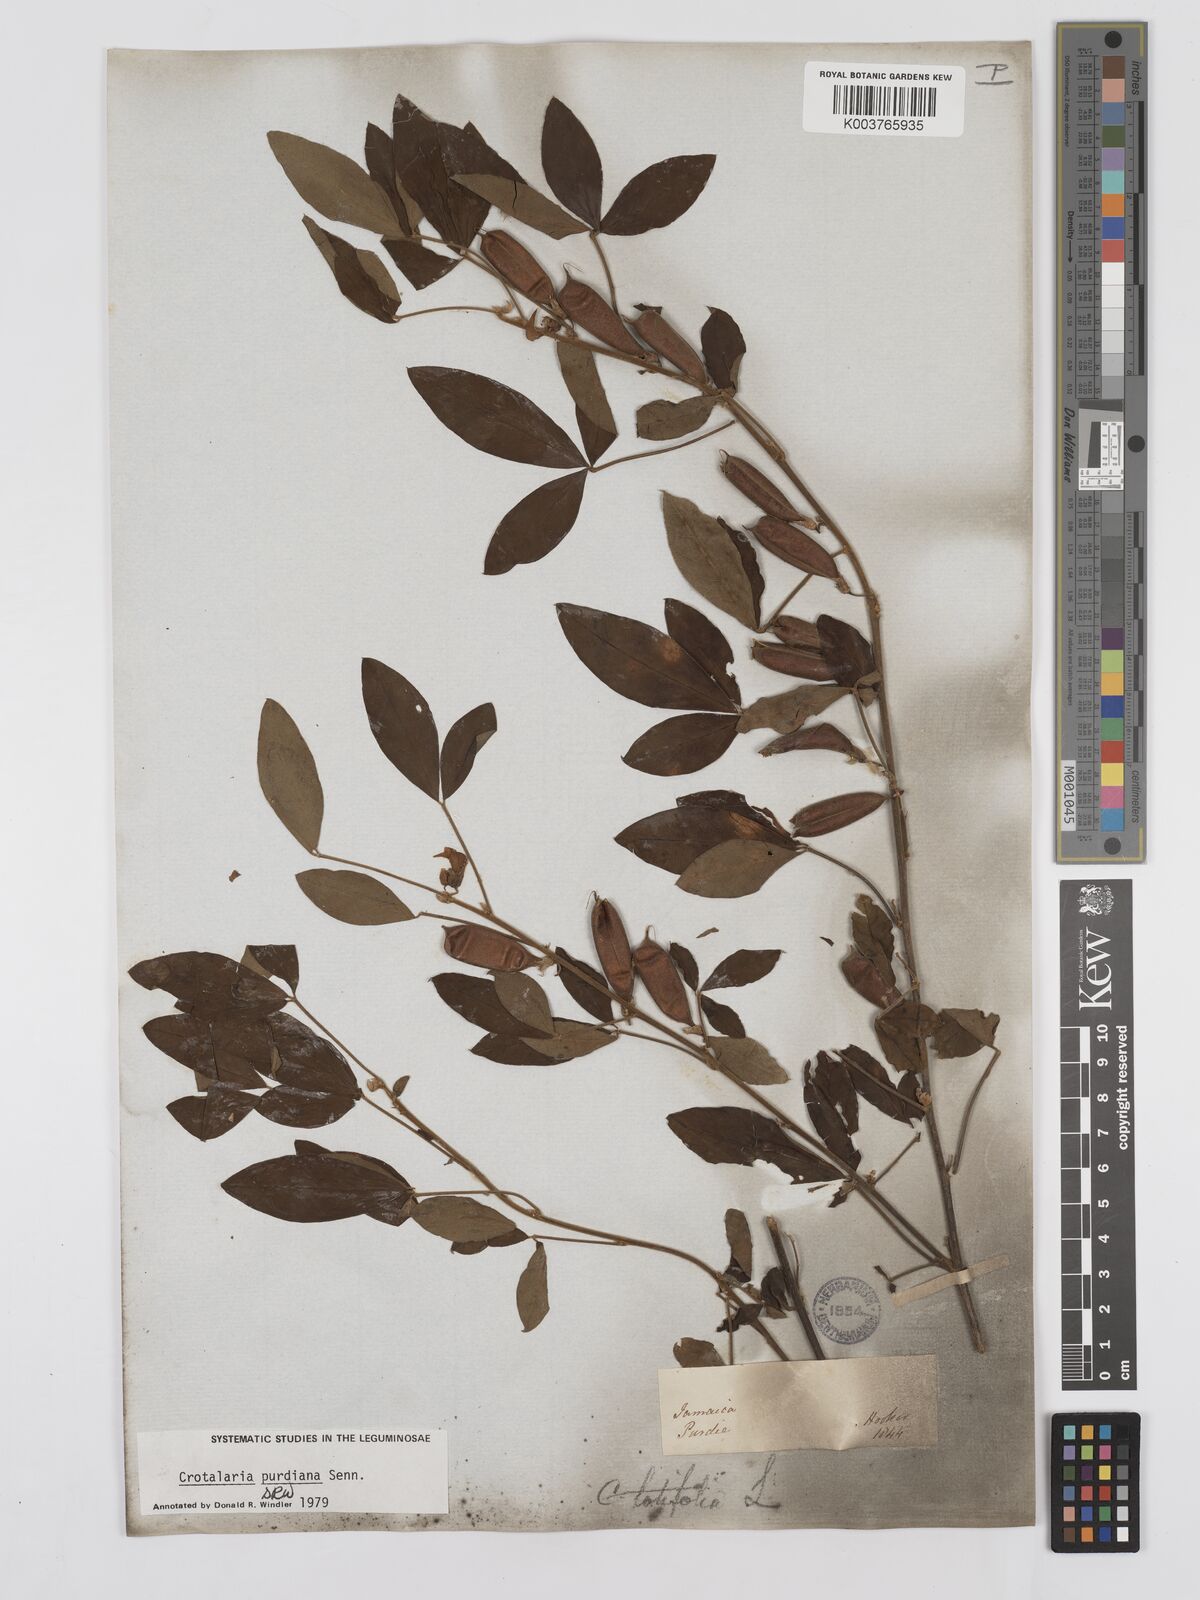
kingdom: Plantae
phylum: Tracheophyta
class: Magnoliopsida
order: Fabales
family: Fabaceae
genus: Crotalaria
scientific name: Crotalaria purdieana
